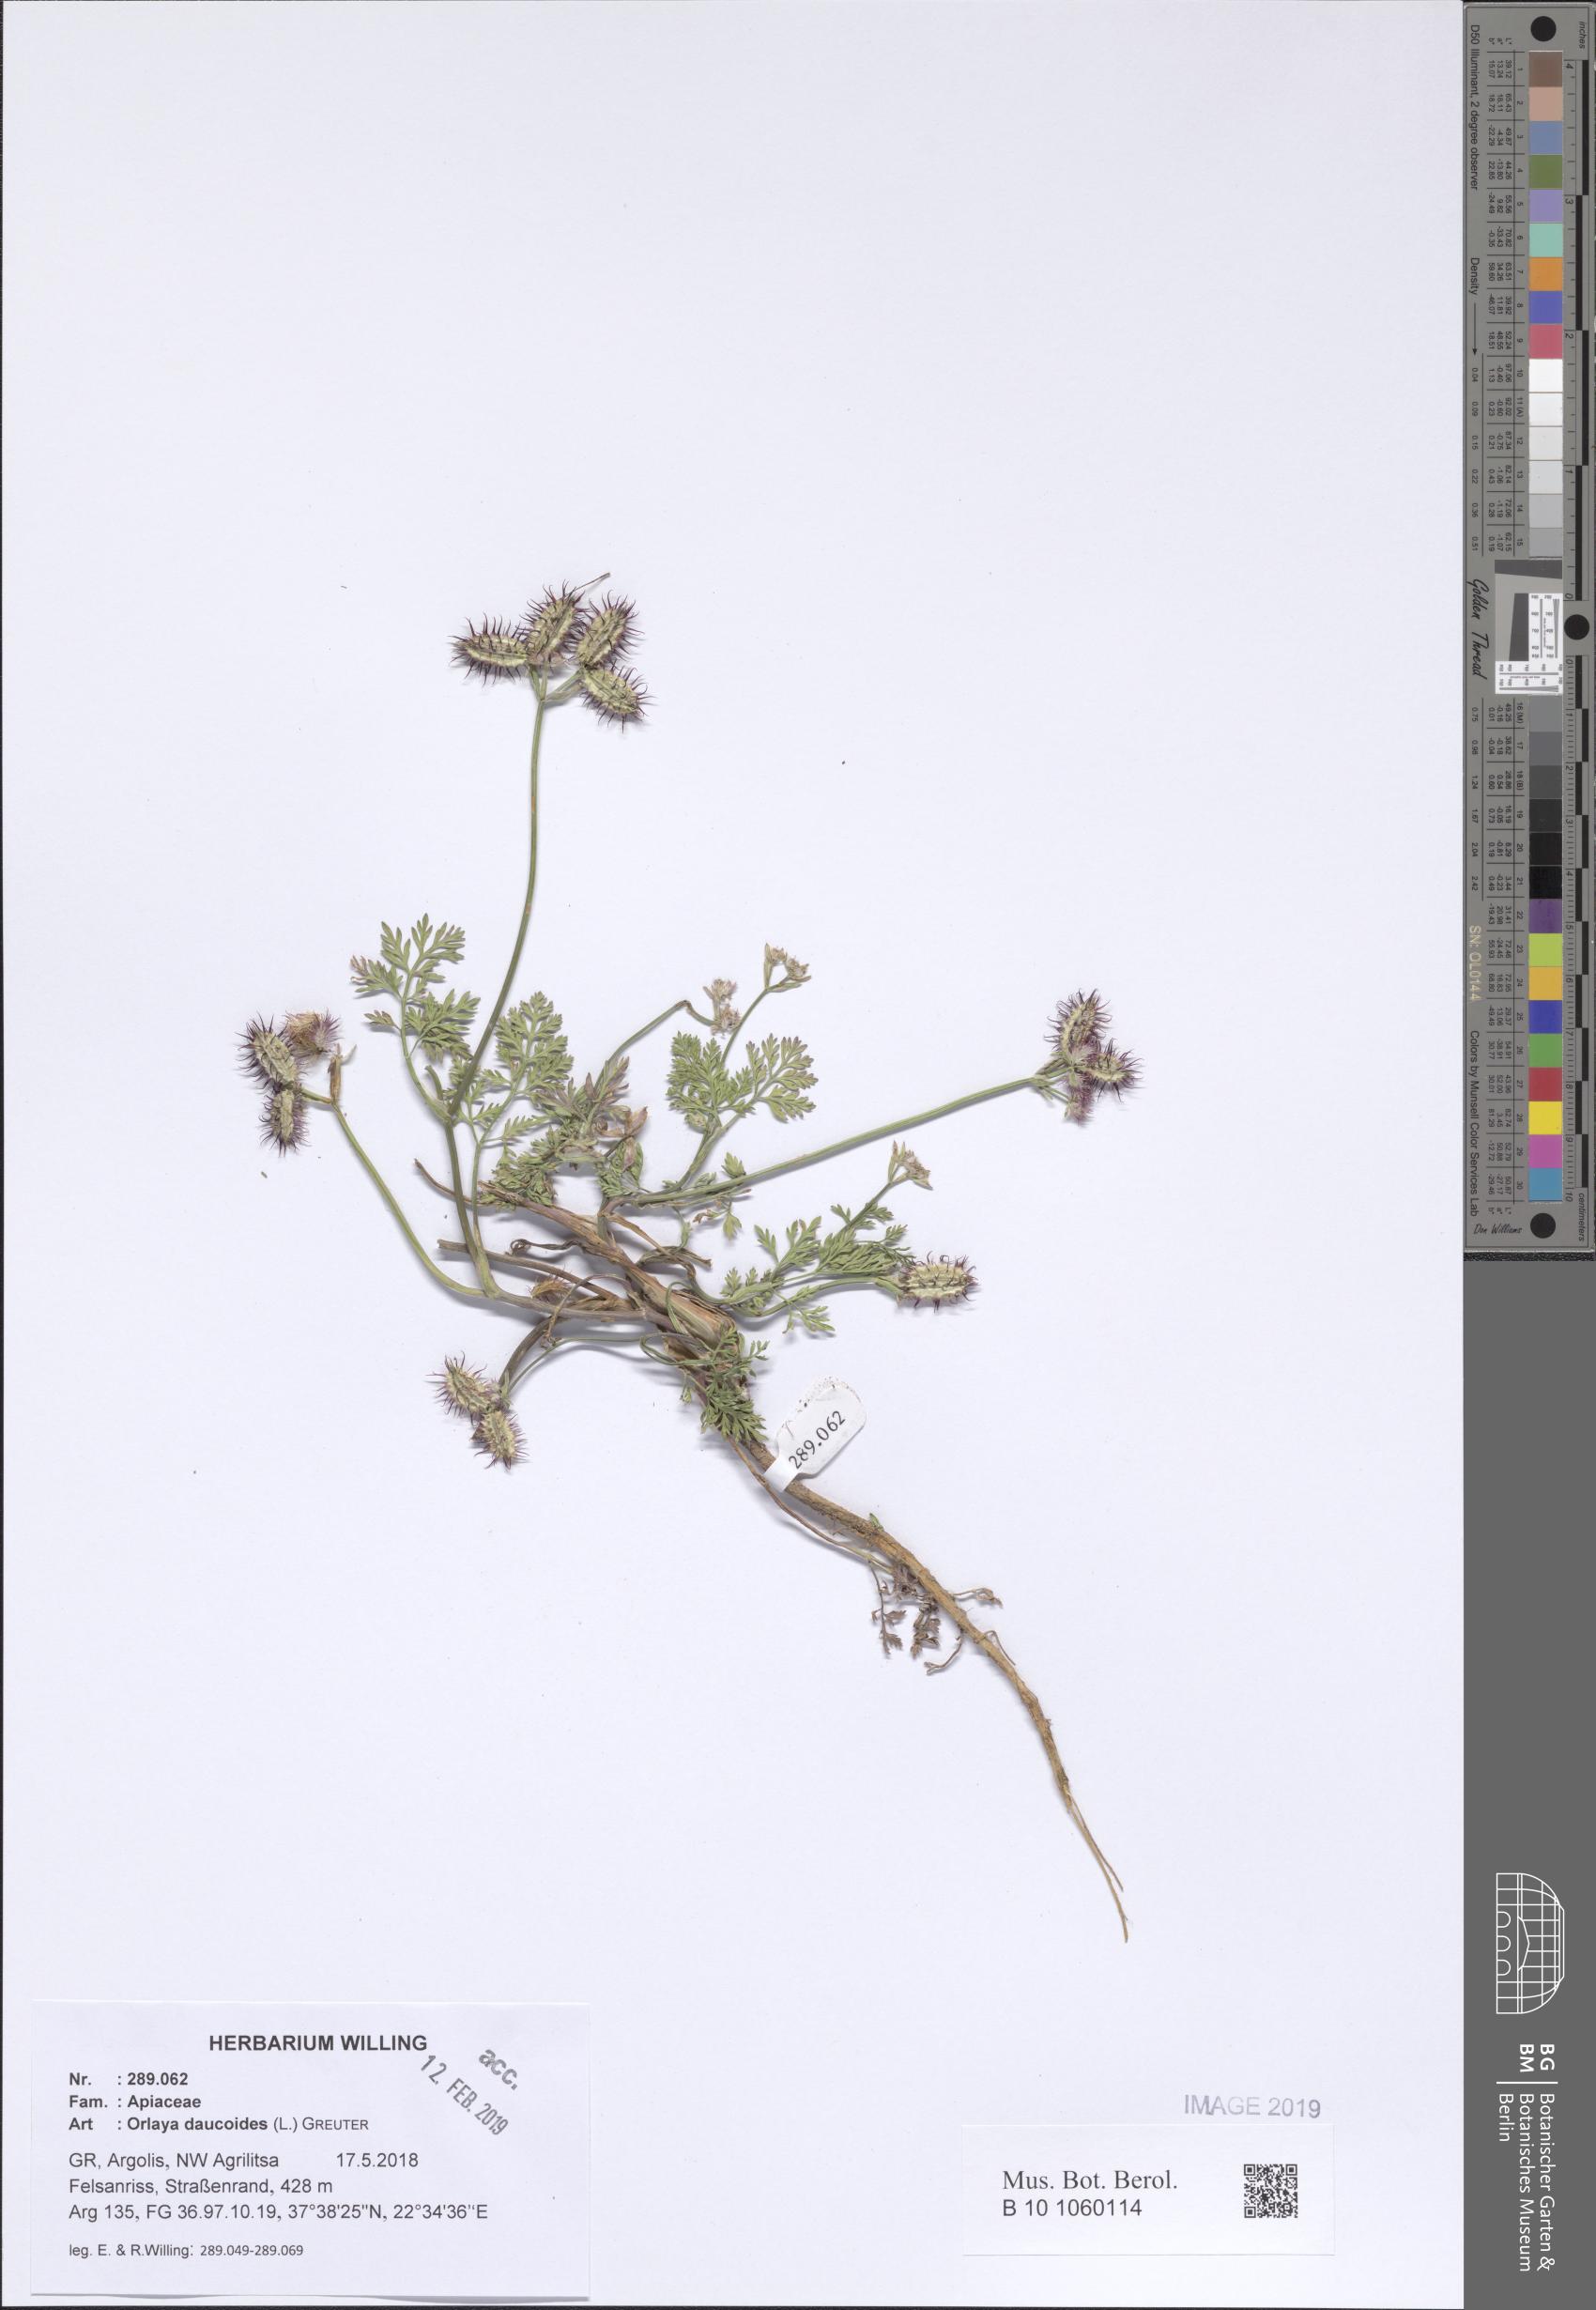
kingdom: Plantae
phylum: Tracheophyta
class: Magnoliopsida
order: Apiales
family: Apiaceae
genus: Orlaya
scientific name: Orlaya daucoides
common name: Flat-fruit orlaya
